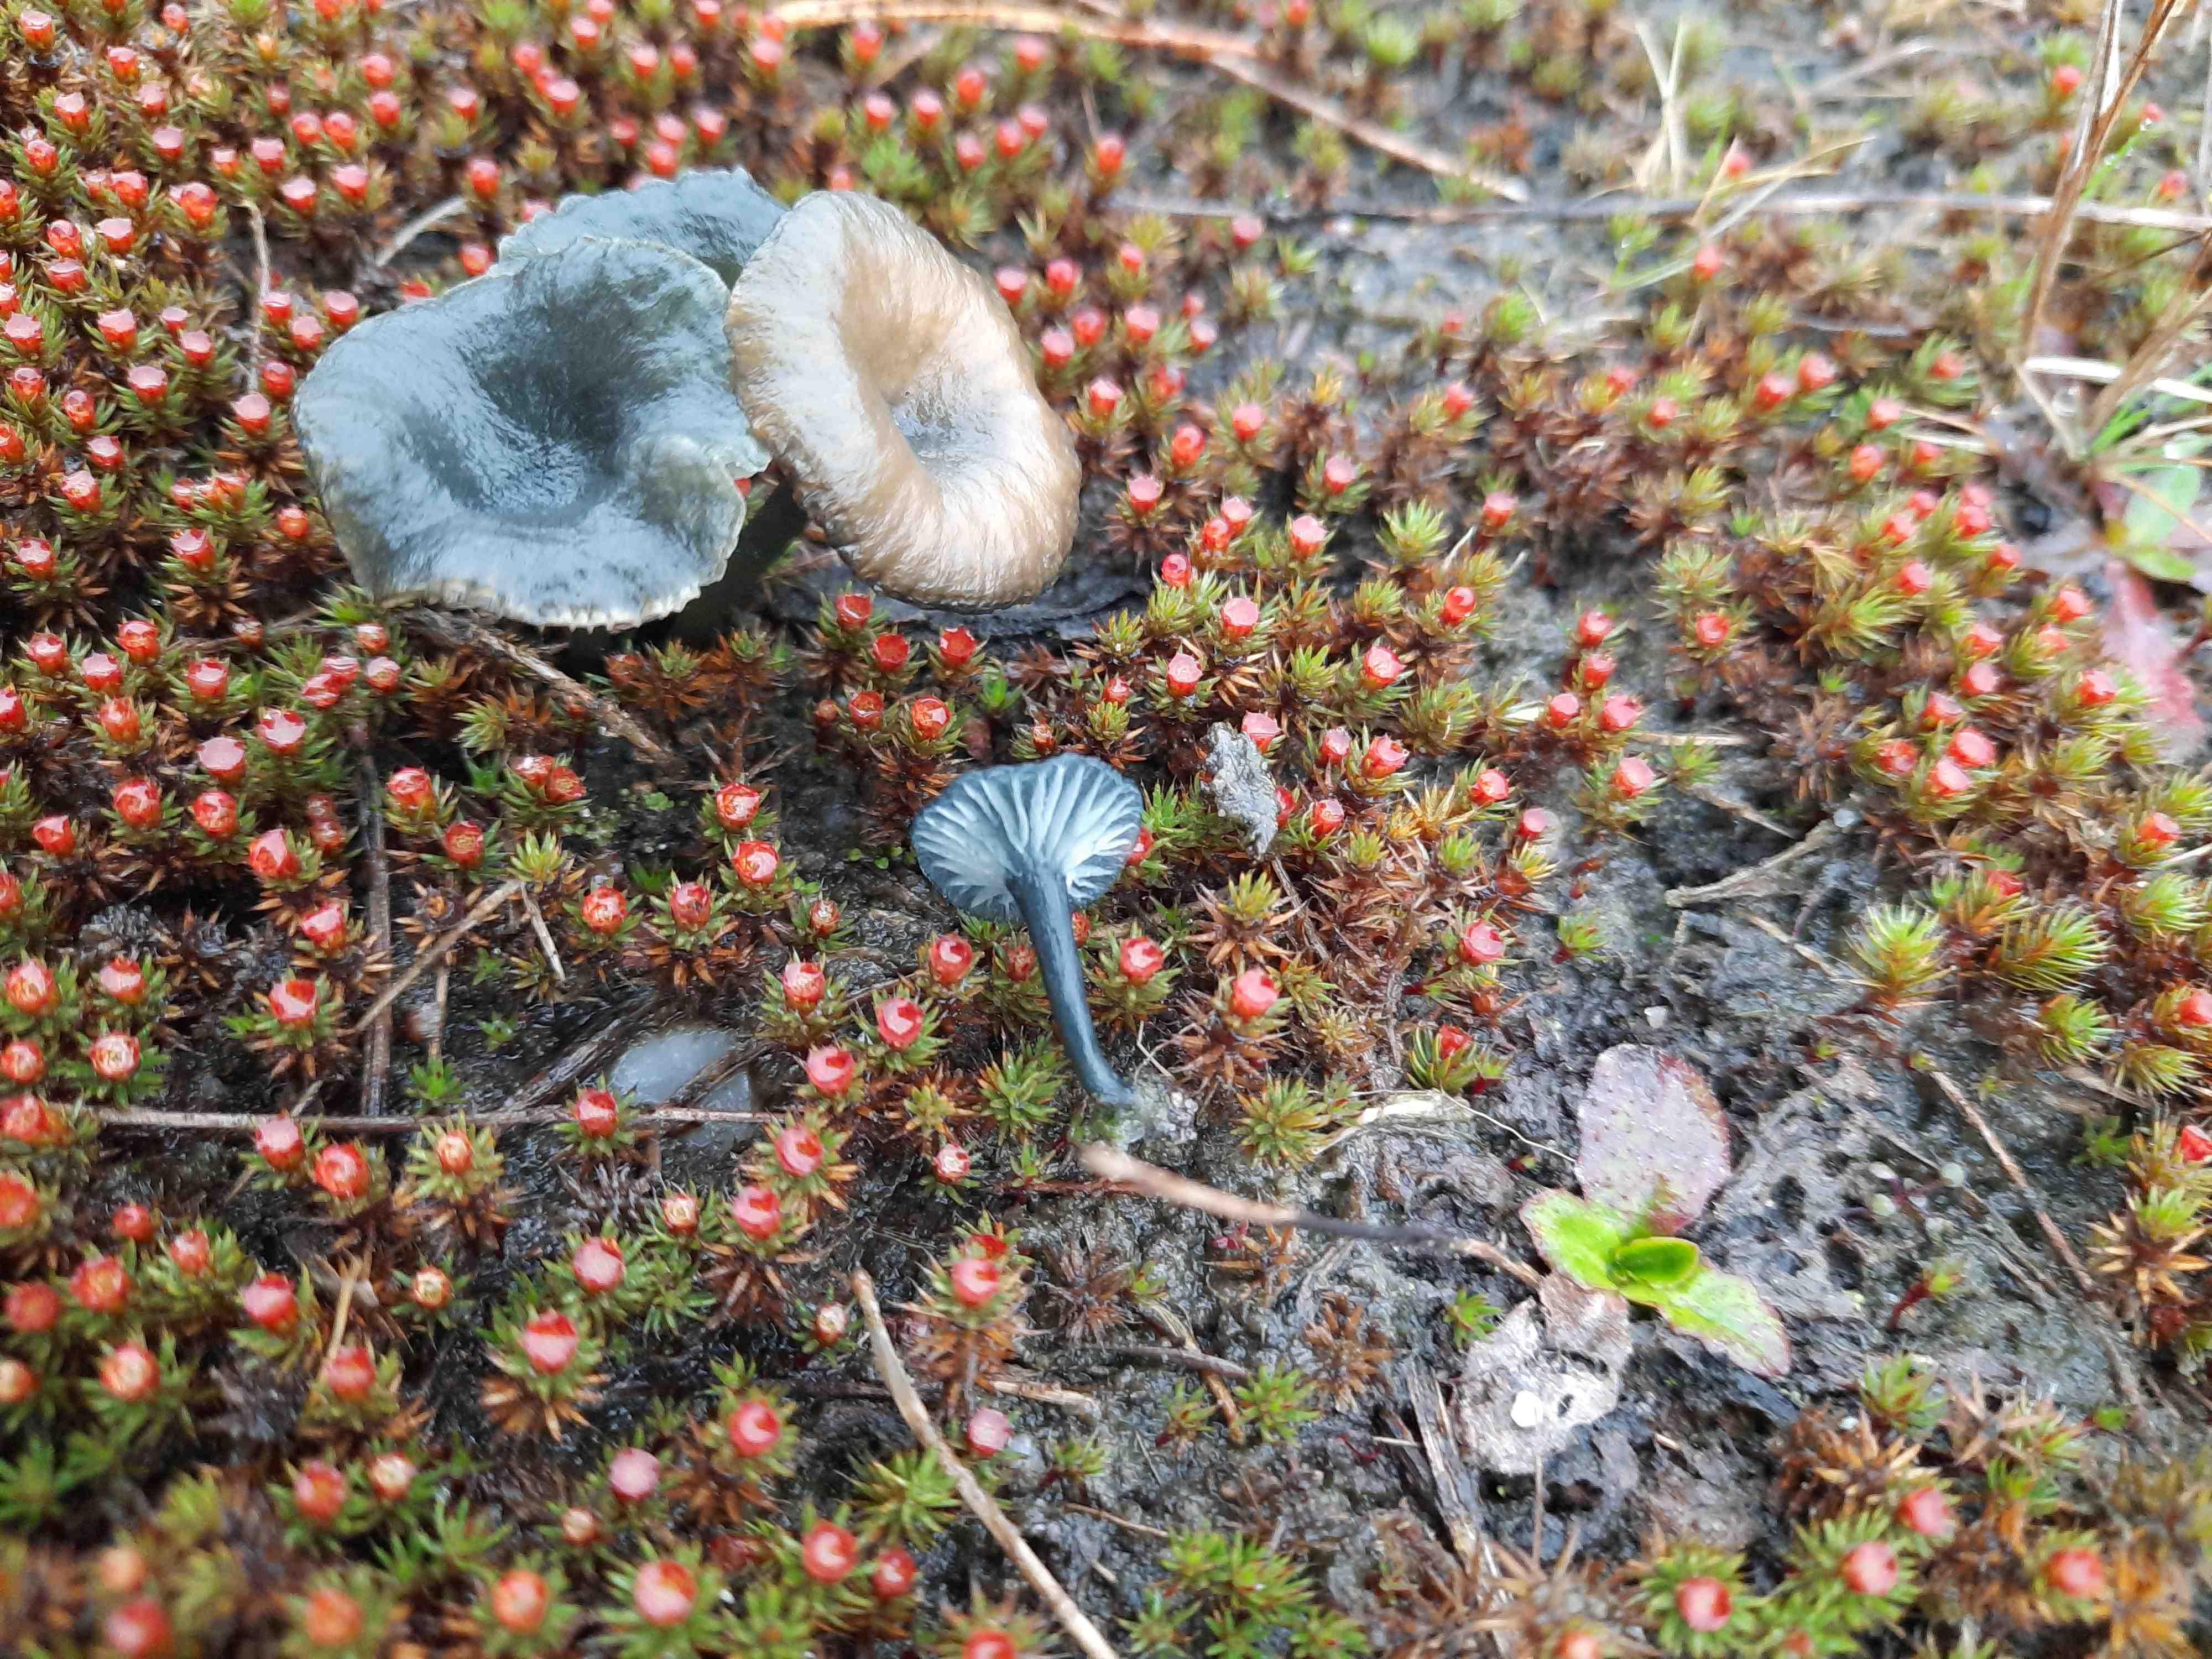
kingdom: Fungi
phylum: Basidiomycota
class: Agaricomycetes
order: Agaricales
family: Hygrophoraceae
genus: Arrhenia
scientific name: Arrhenia chlorocyanea
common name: blågrøn fontænehat
